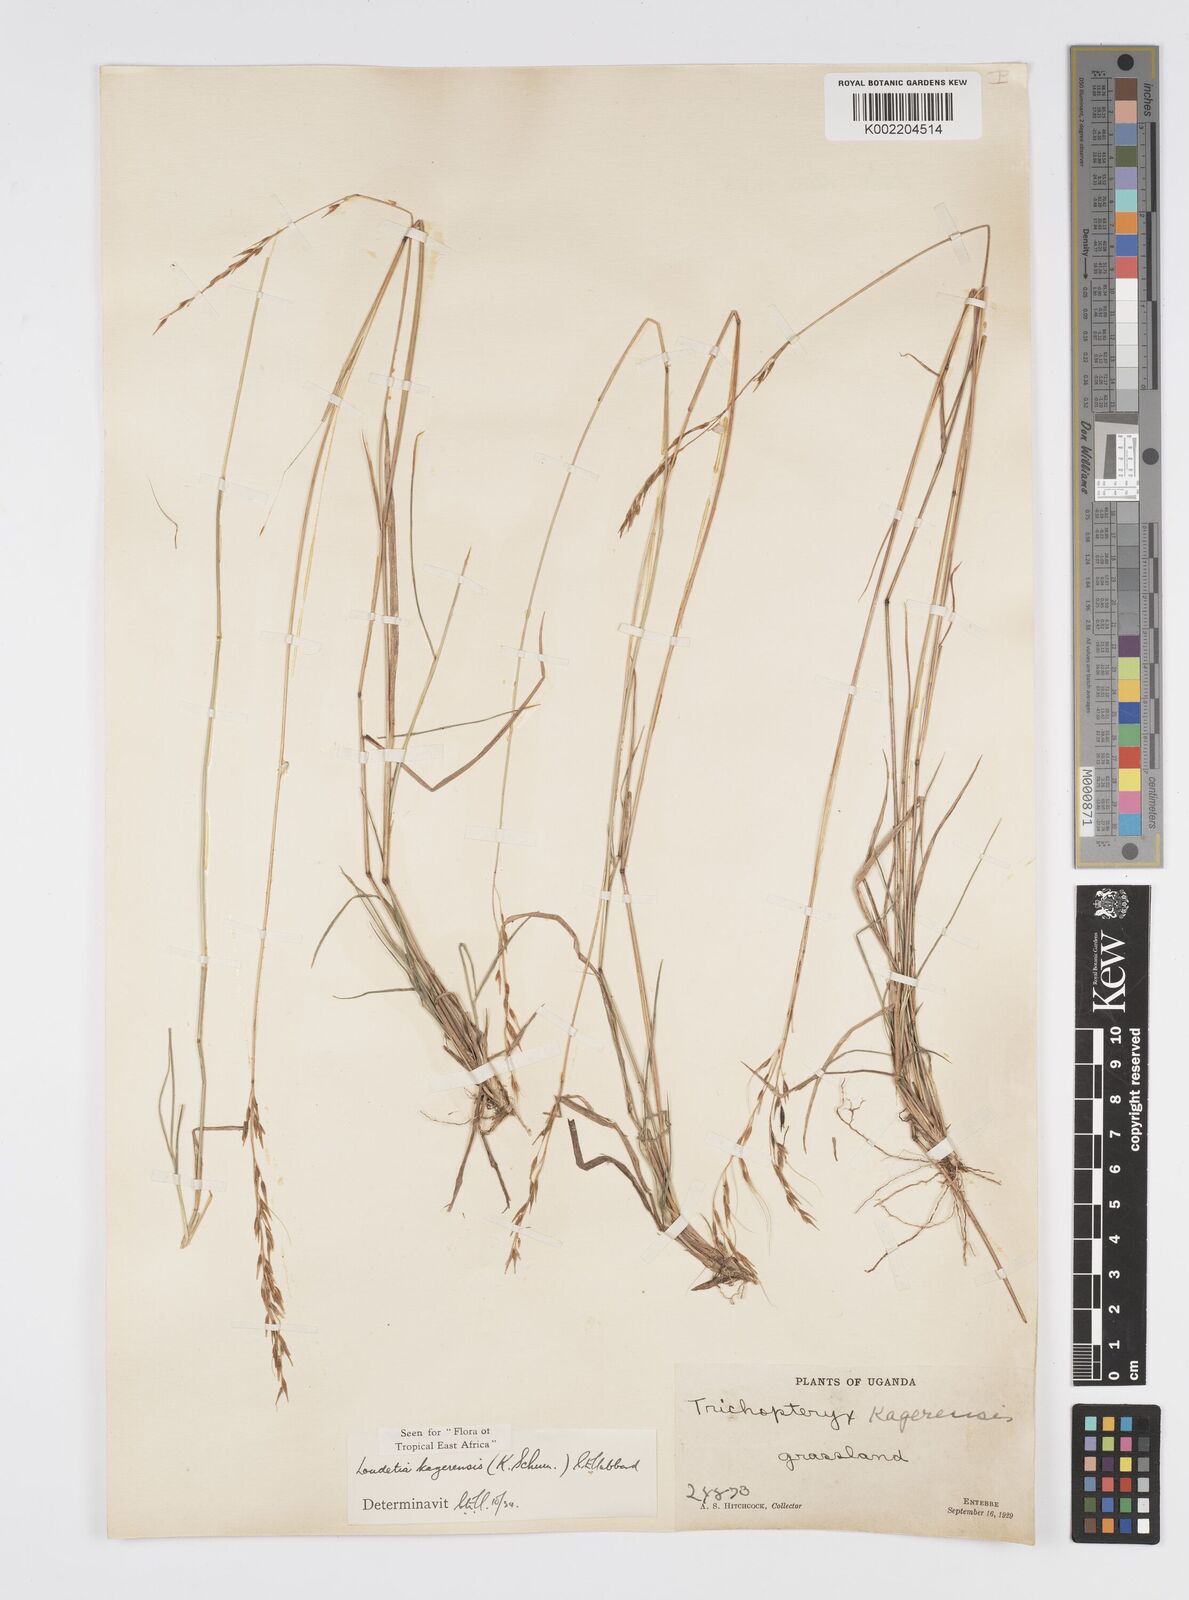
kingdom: Plantae
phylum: Tracheophyta
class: Liliopsida
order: Poales
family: Poaceae
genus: Loudetia
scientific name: Loudetia kagerensis
